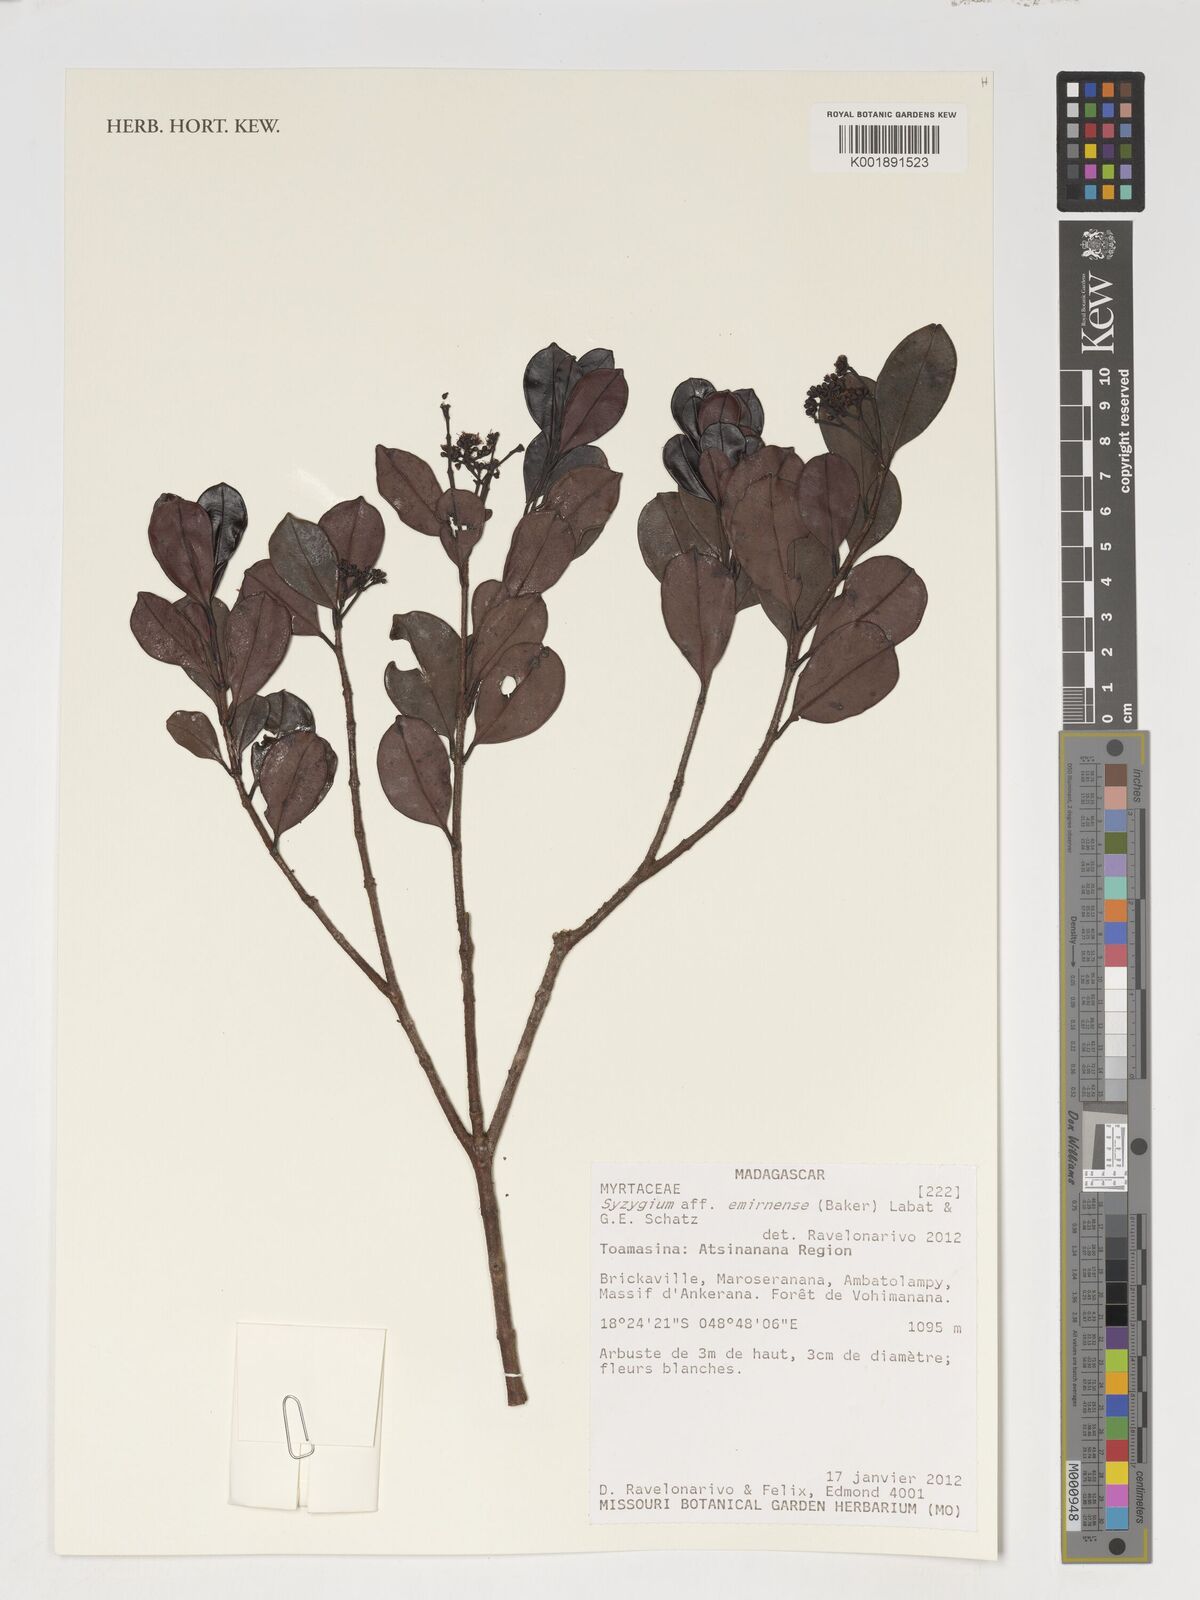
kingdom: Plantae
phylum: Tracheophyta
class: Magnoliopsida
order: Myrtales
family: Myrtaceae
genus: Syzygium
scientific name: Syzygium emirnense
